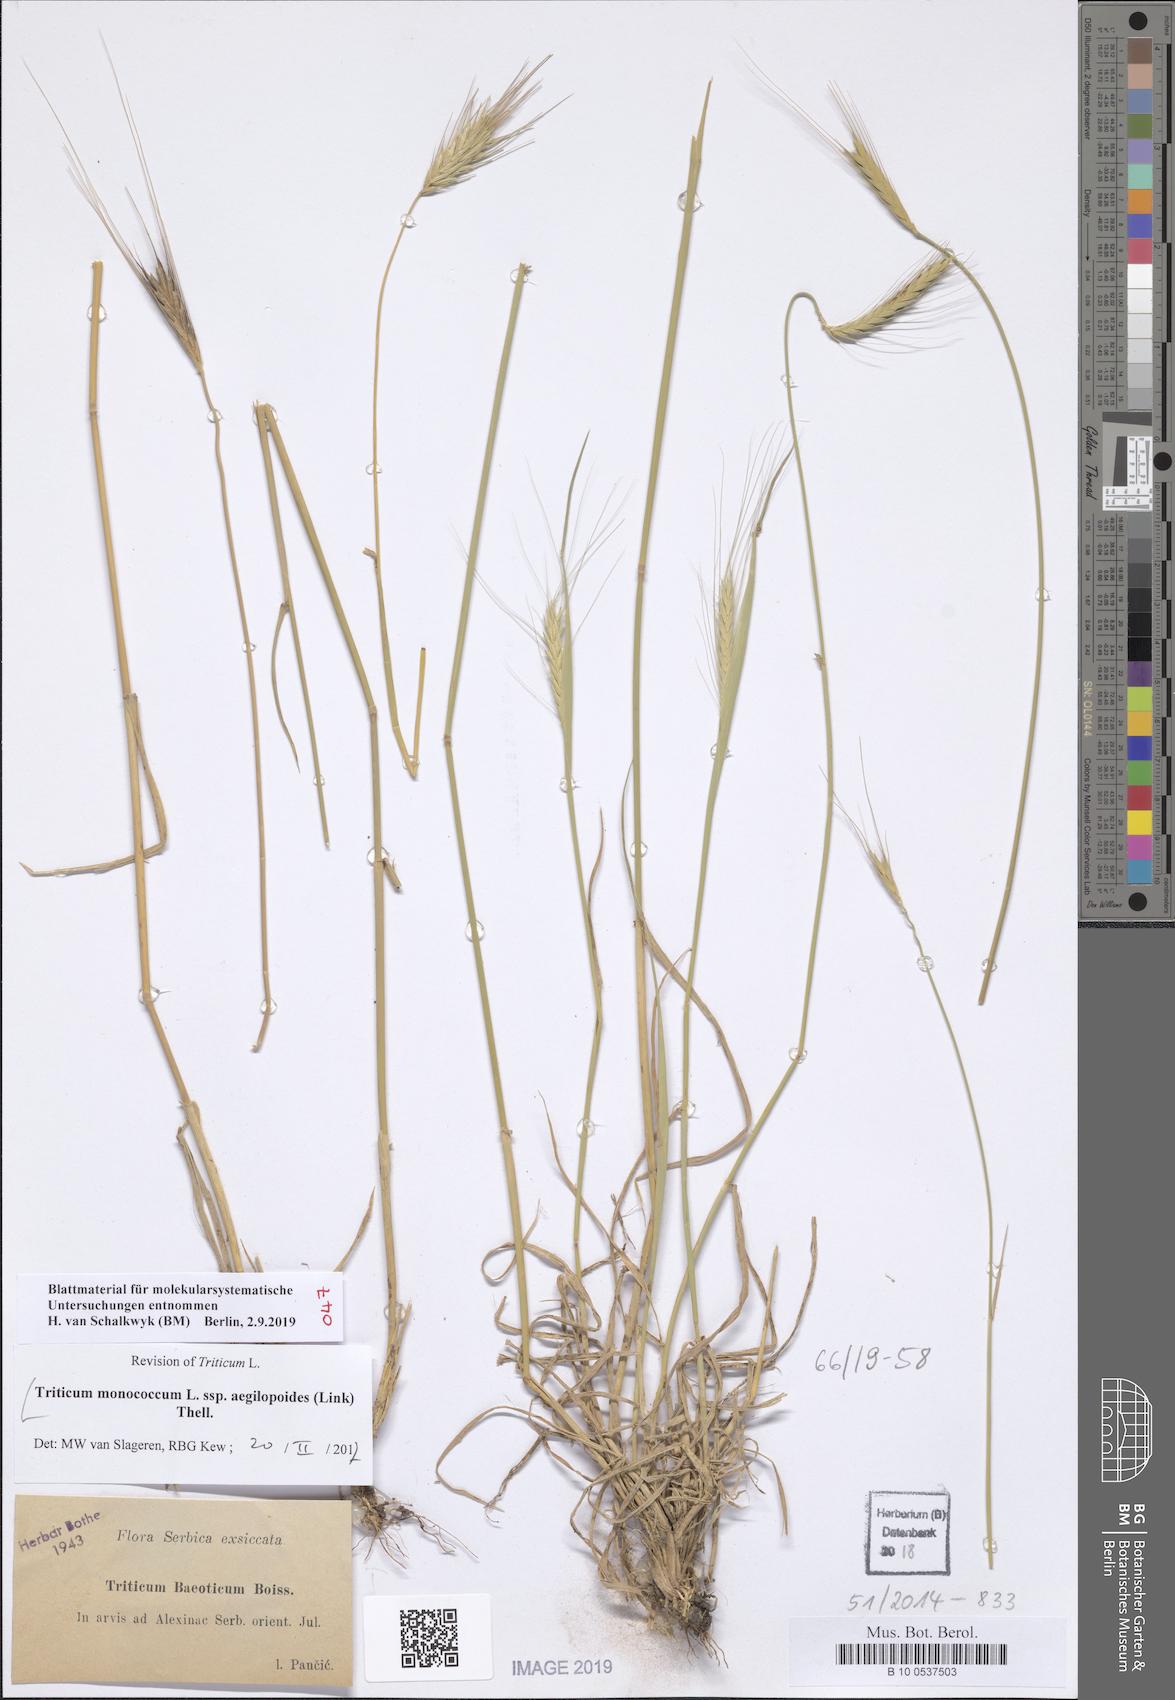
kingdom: Plantae
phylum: Tracheophyta
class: Liliopsida
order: Poales
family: Poaceae
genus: Triticum
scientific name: Triticum monococcum
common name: Einkorn
